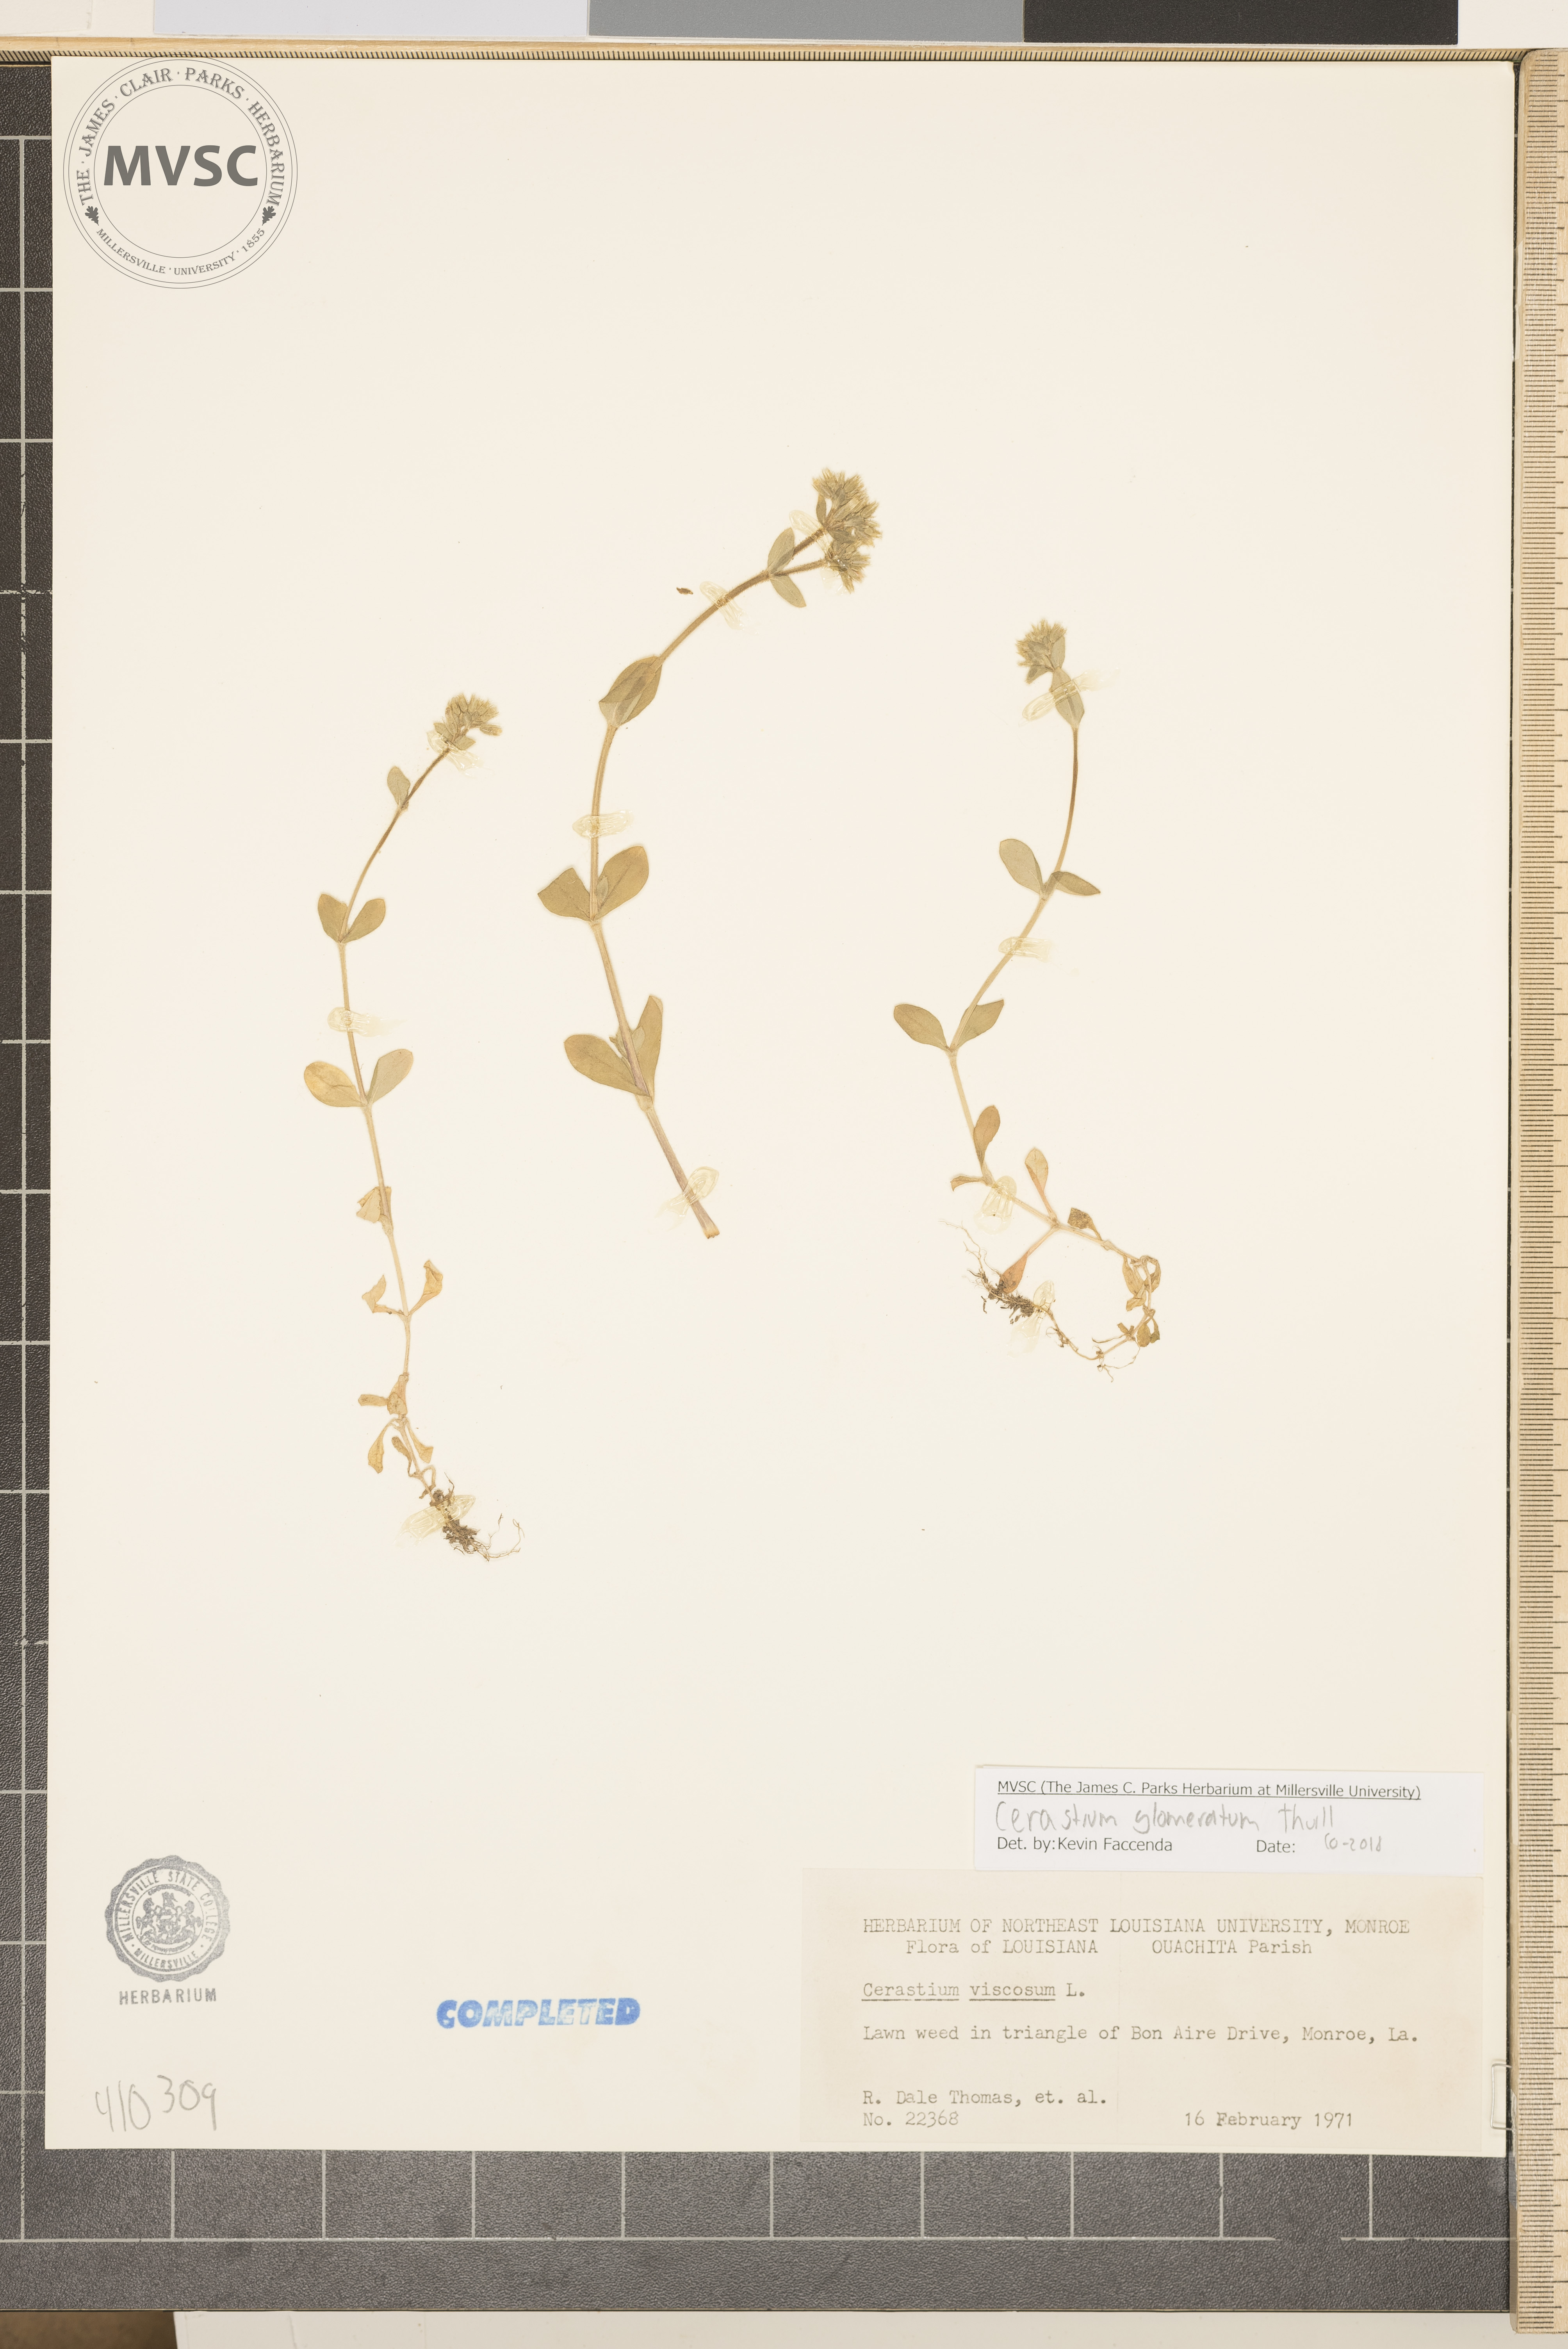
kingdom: Plantae
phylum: Tracheophyta
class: Magnoliopsida
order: Caryophyllales
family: Caryophyllaceae
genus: Cerastium
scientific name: Cerastium glomeratum
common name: Sticky chickweed
